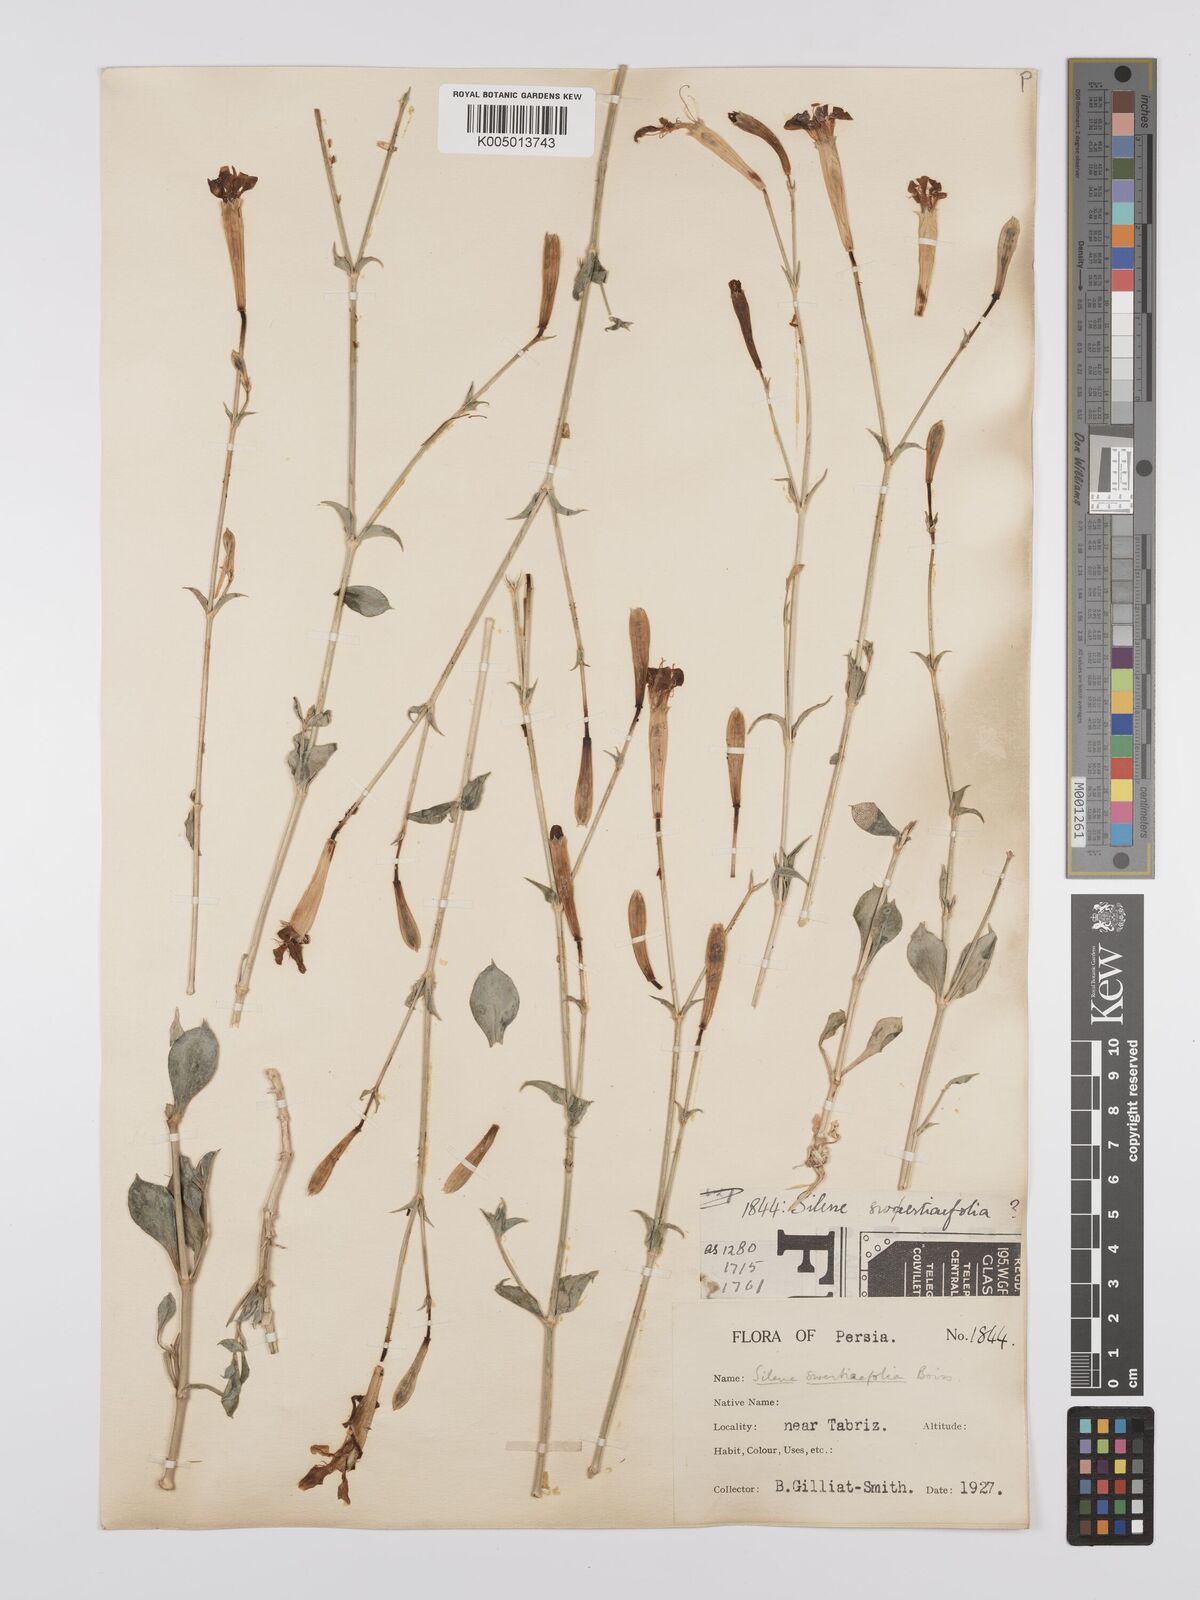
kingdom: Plantae
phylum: Tracheophyta
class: Magnoliopsida
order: Caryophyllales
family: Caryophyllaceae
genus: Silene
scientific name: Silene swertiifolia
